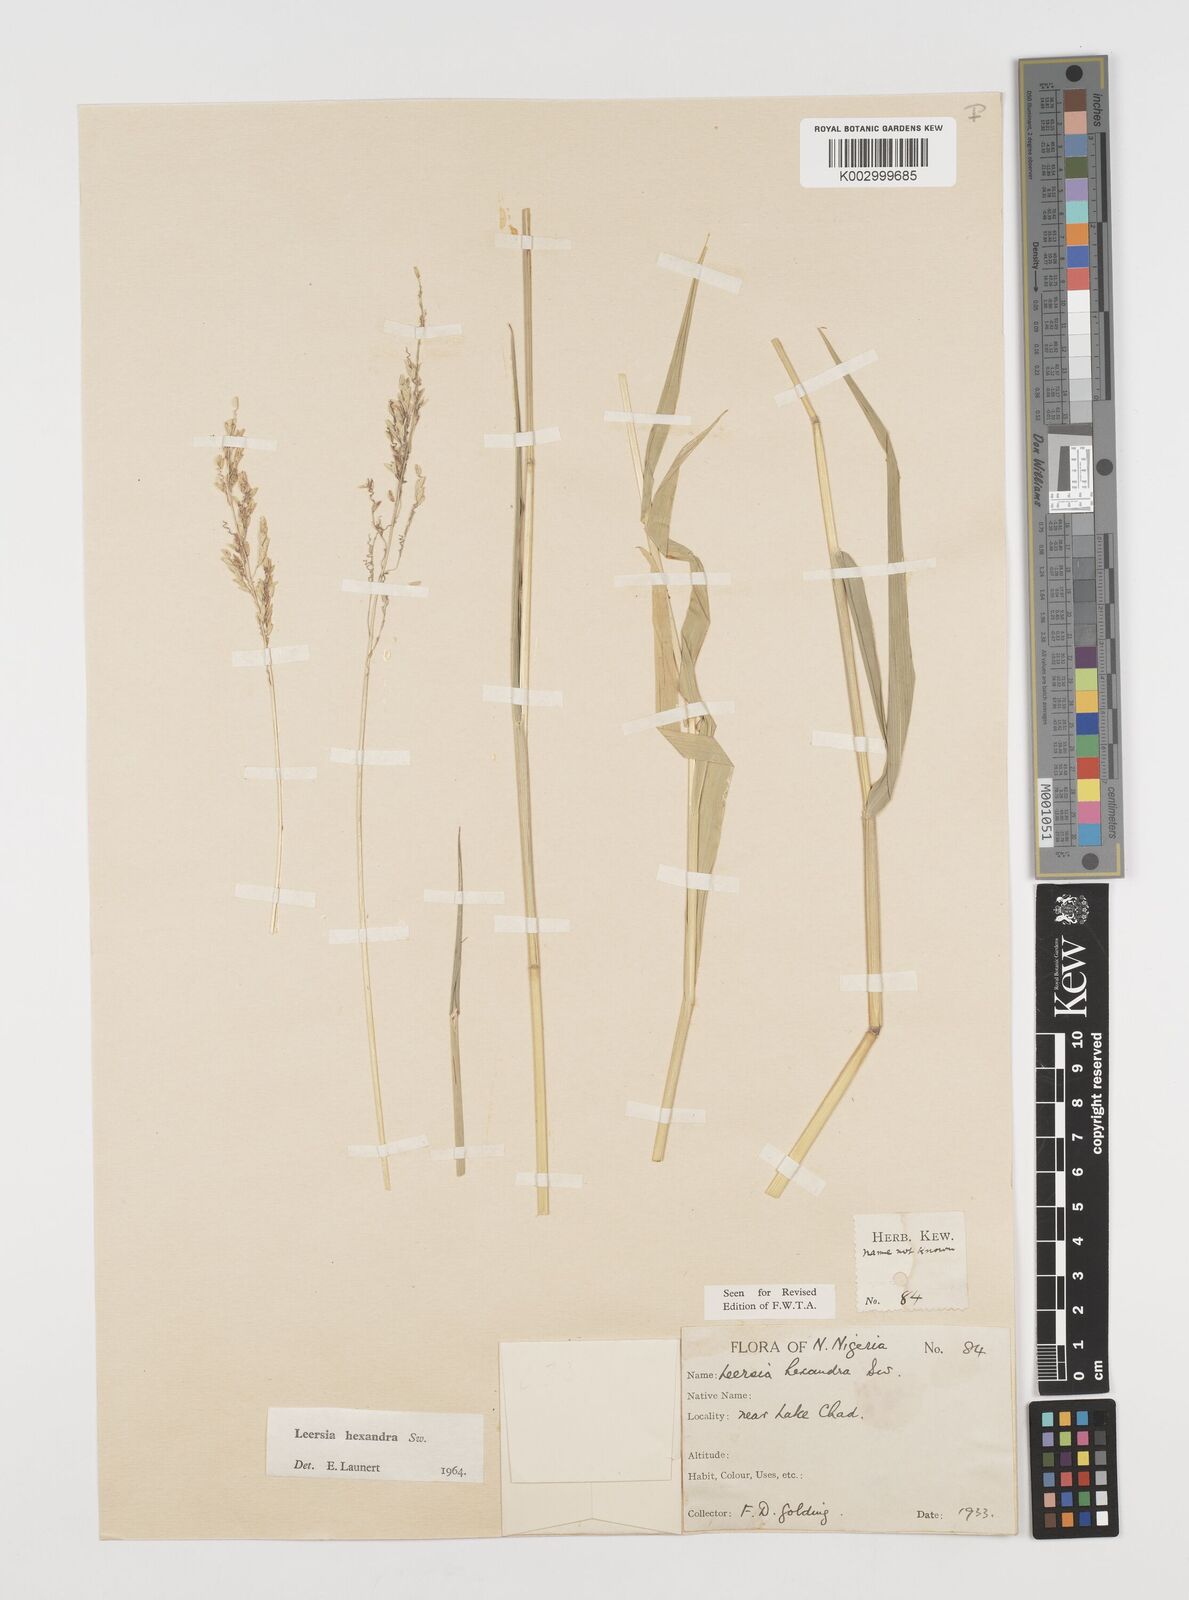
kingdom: Plantae
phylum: Tracheophyta
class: Liliopsida
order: Poales
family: Poaceae
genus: Leersia
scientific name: Leersia hexandra
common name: Southern cut grass
